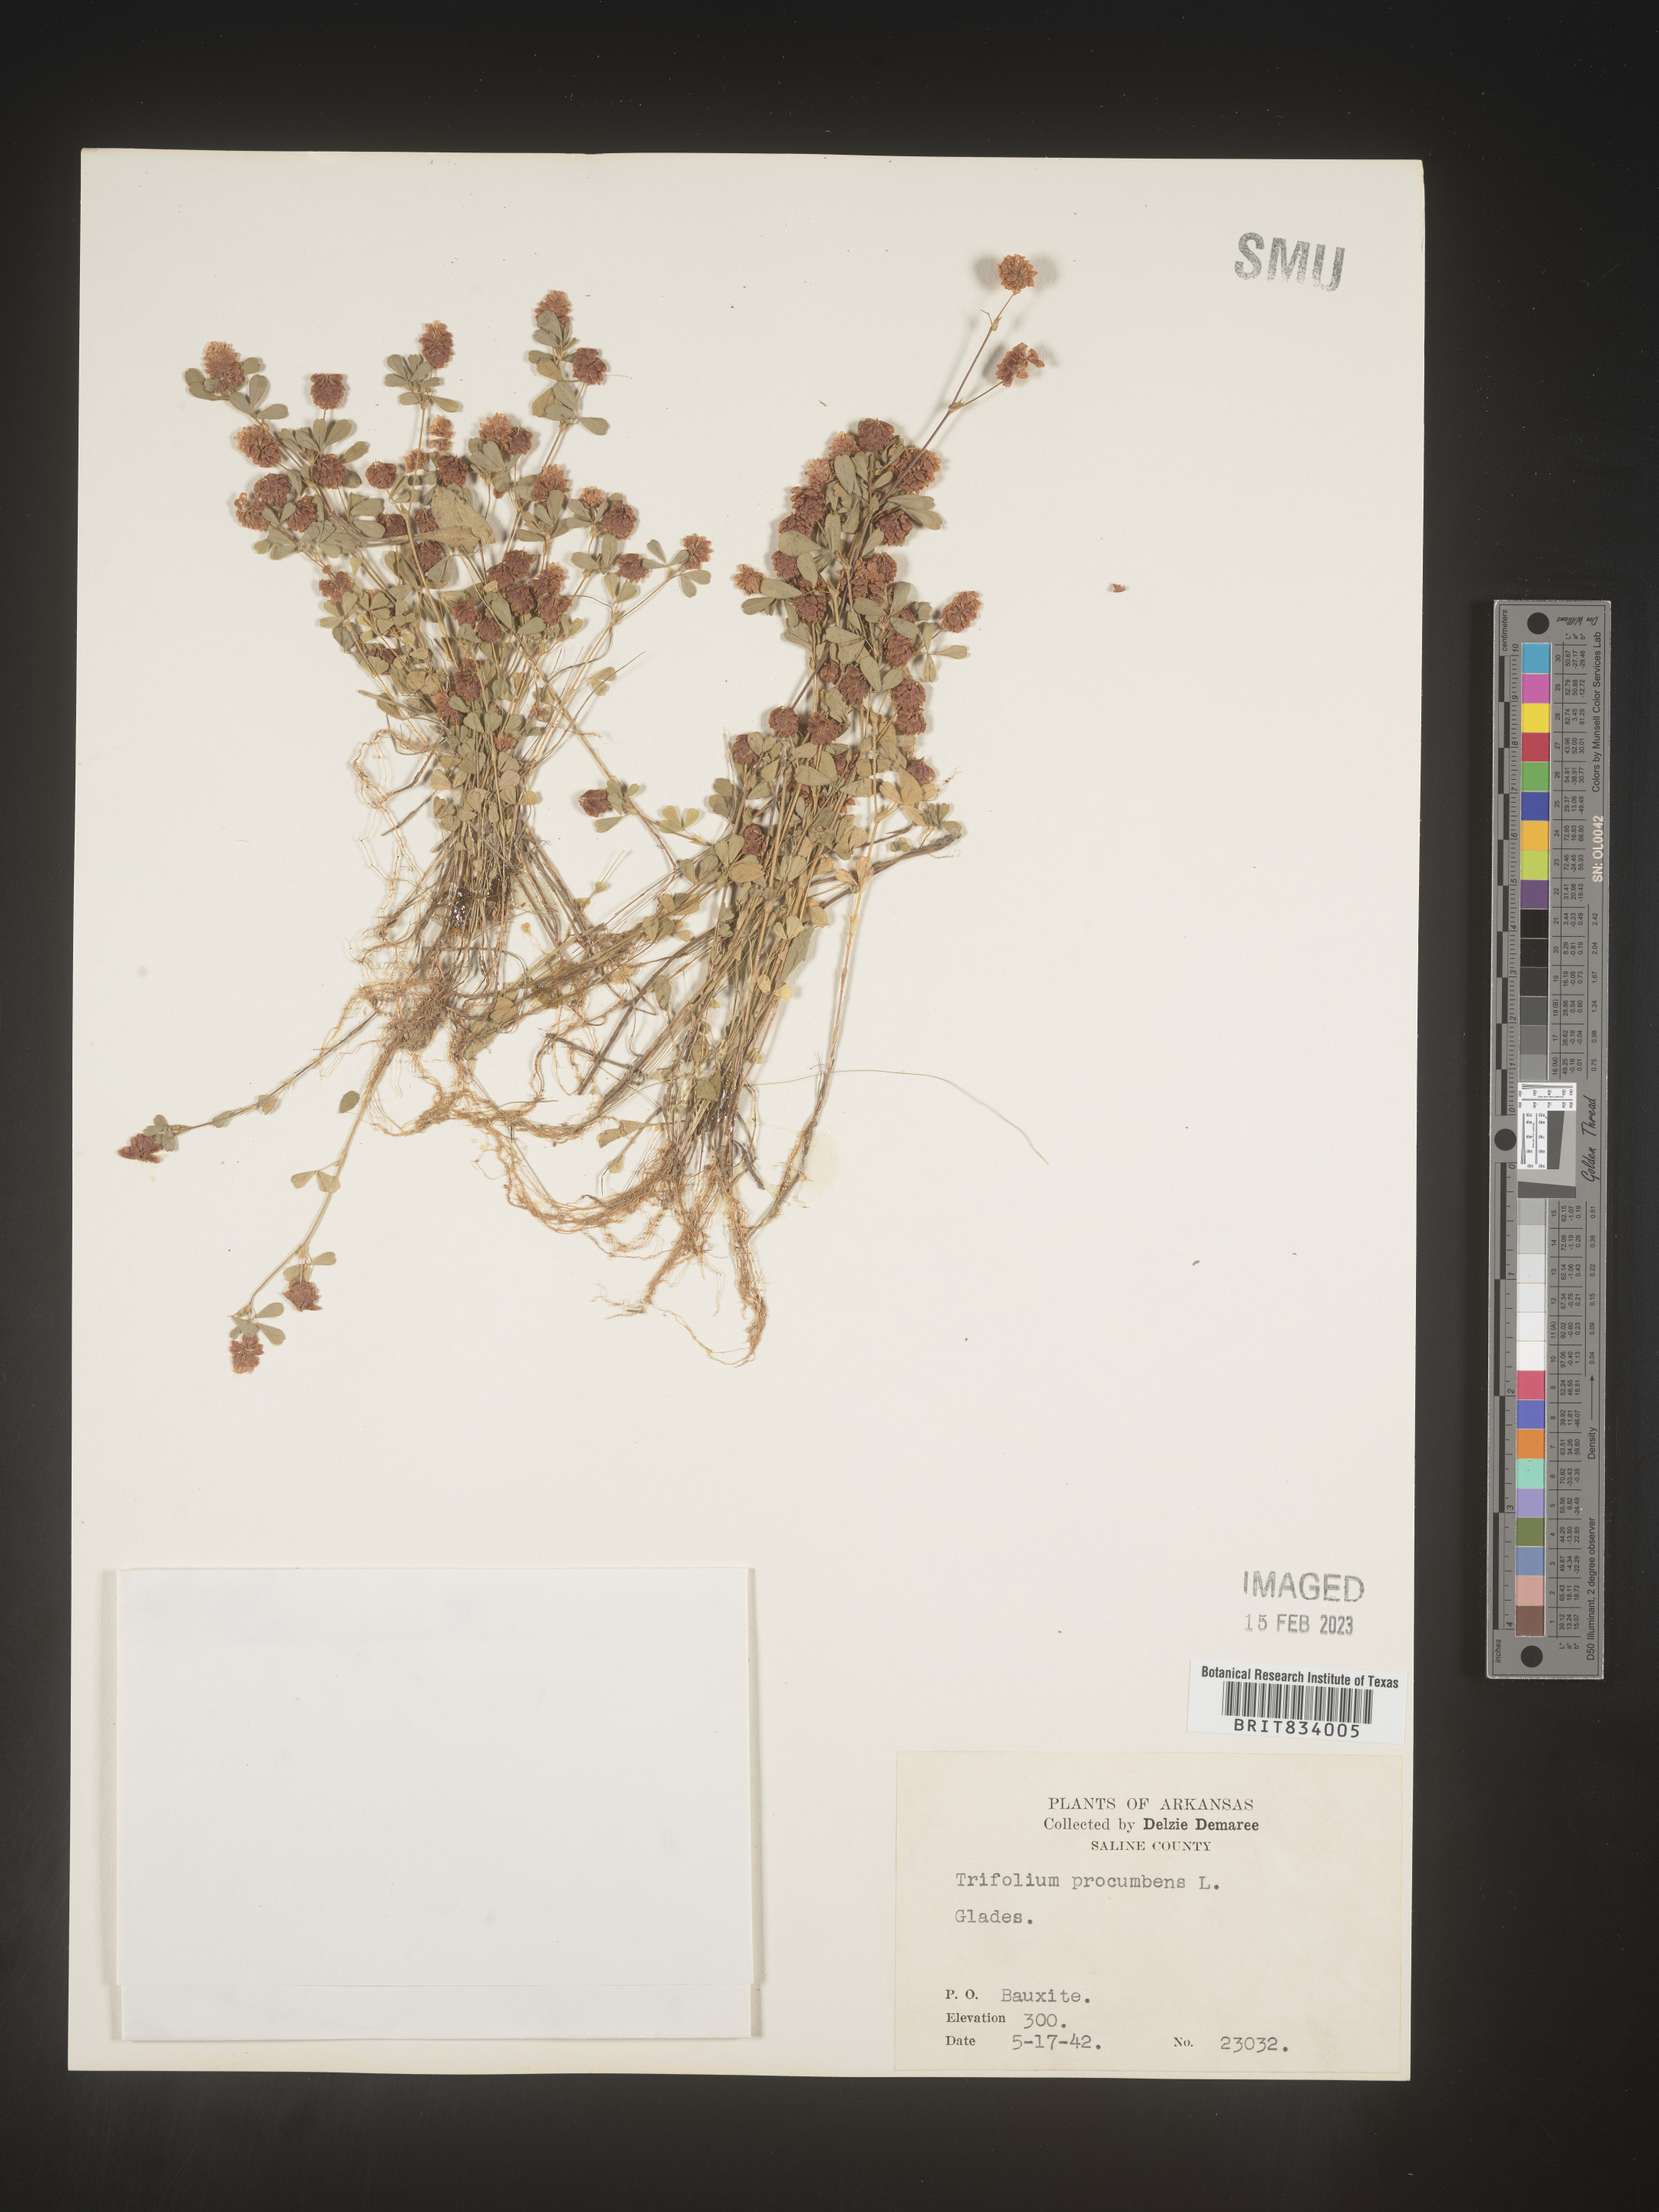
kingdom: Plantae
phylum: Tracheophyta
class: Magnoliopsida
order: Fabales
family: Fabaceae
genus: Trifolium
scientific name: Trifolium campestre
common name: Field clover
